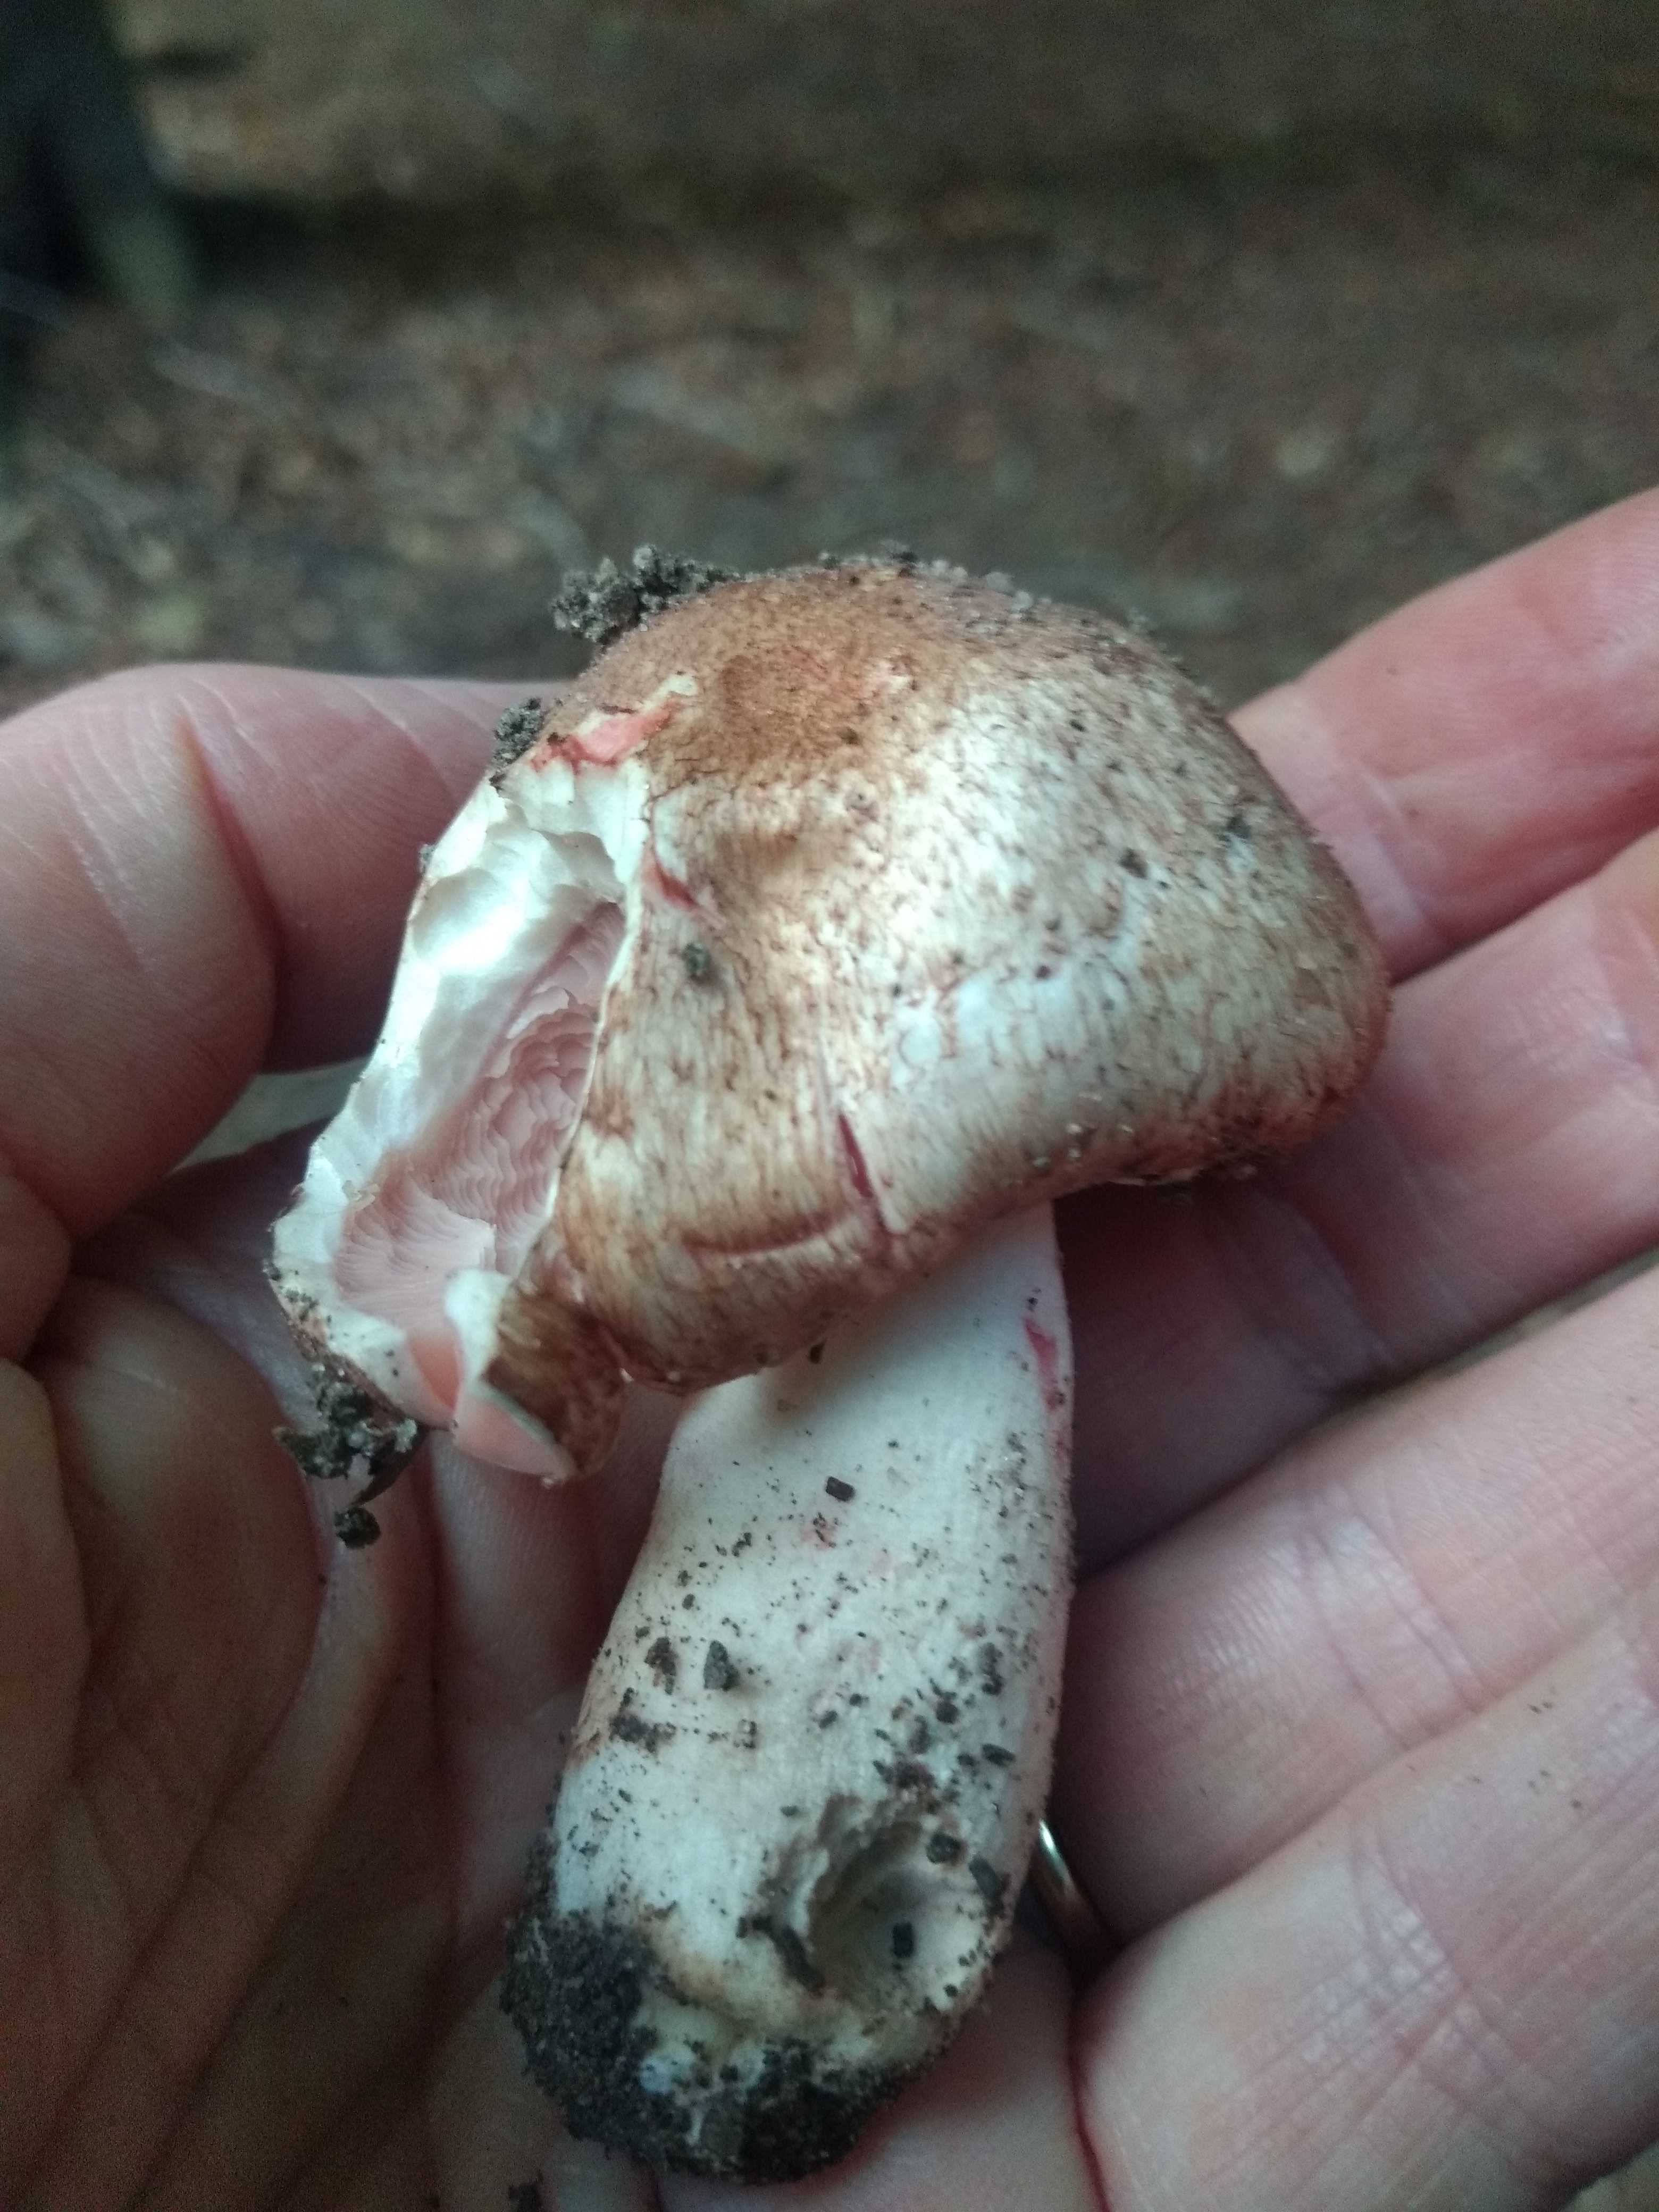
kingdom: Fungi
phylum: Basidiomycota
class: Agaricomycetes
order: Agaricales
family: Agaricaceae
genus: Agaricus
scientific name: Agaricus langei
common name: stor blod-champignon
